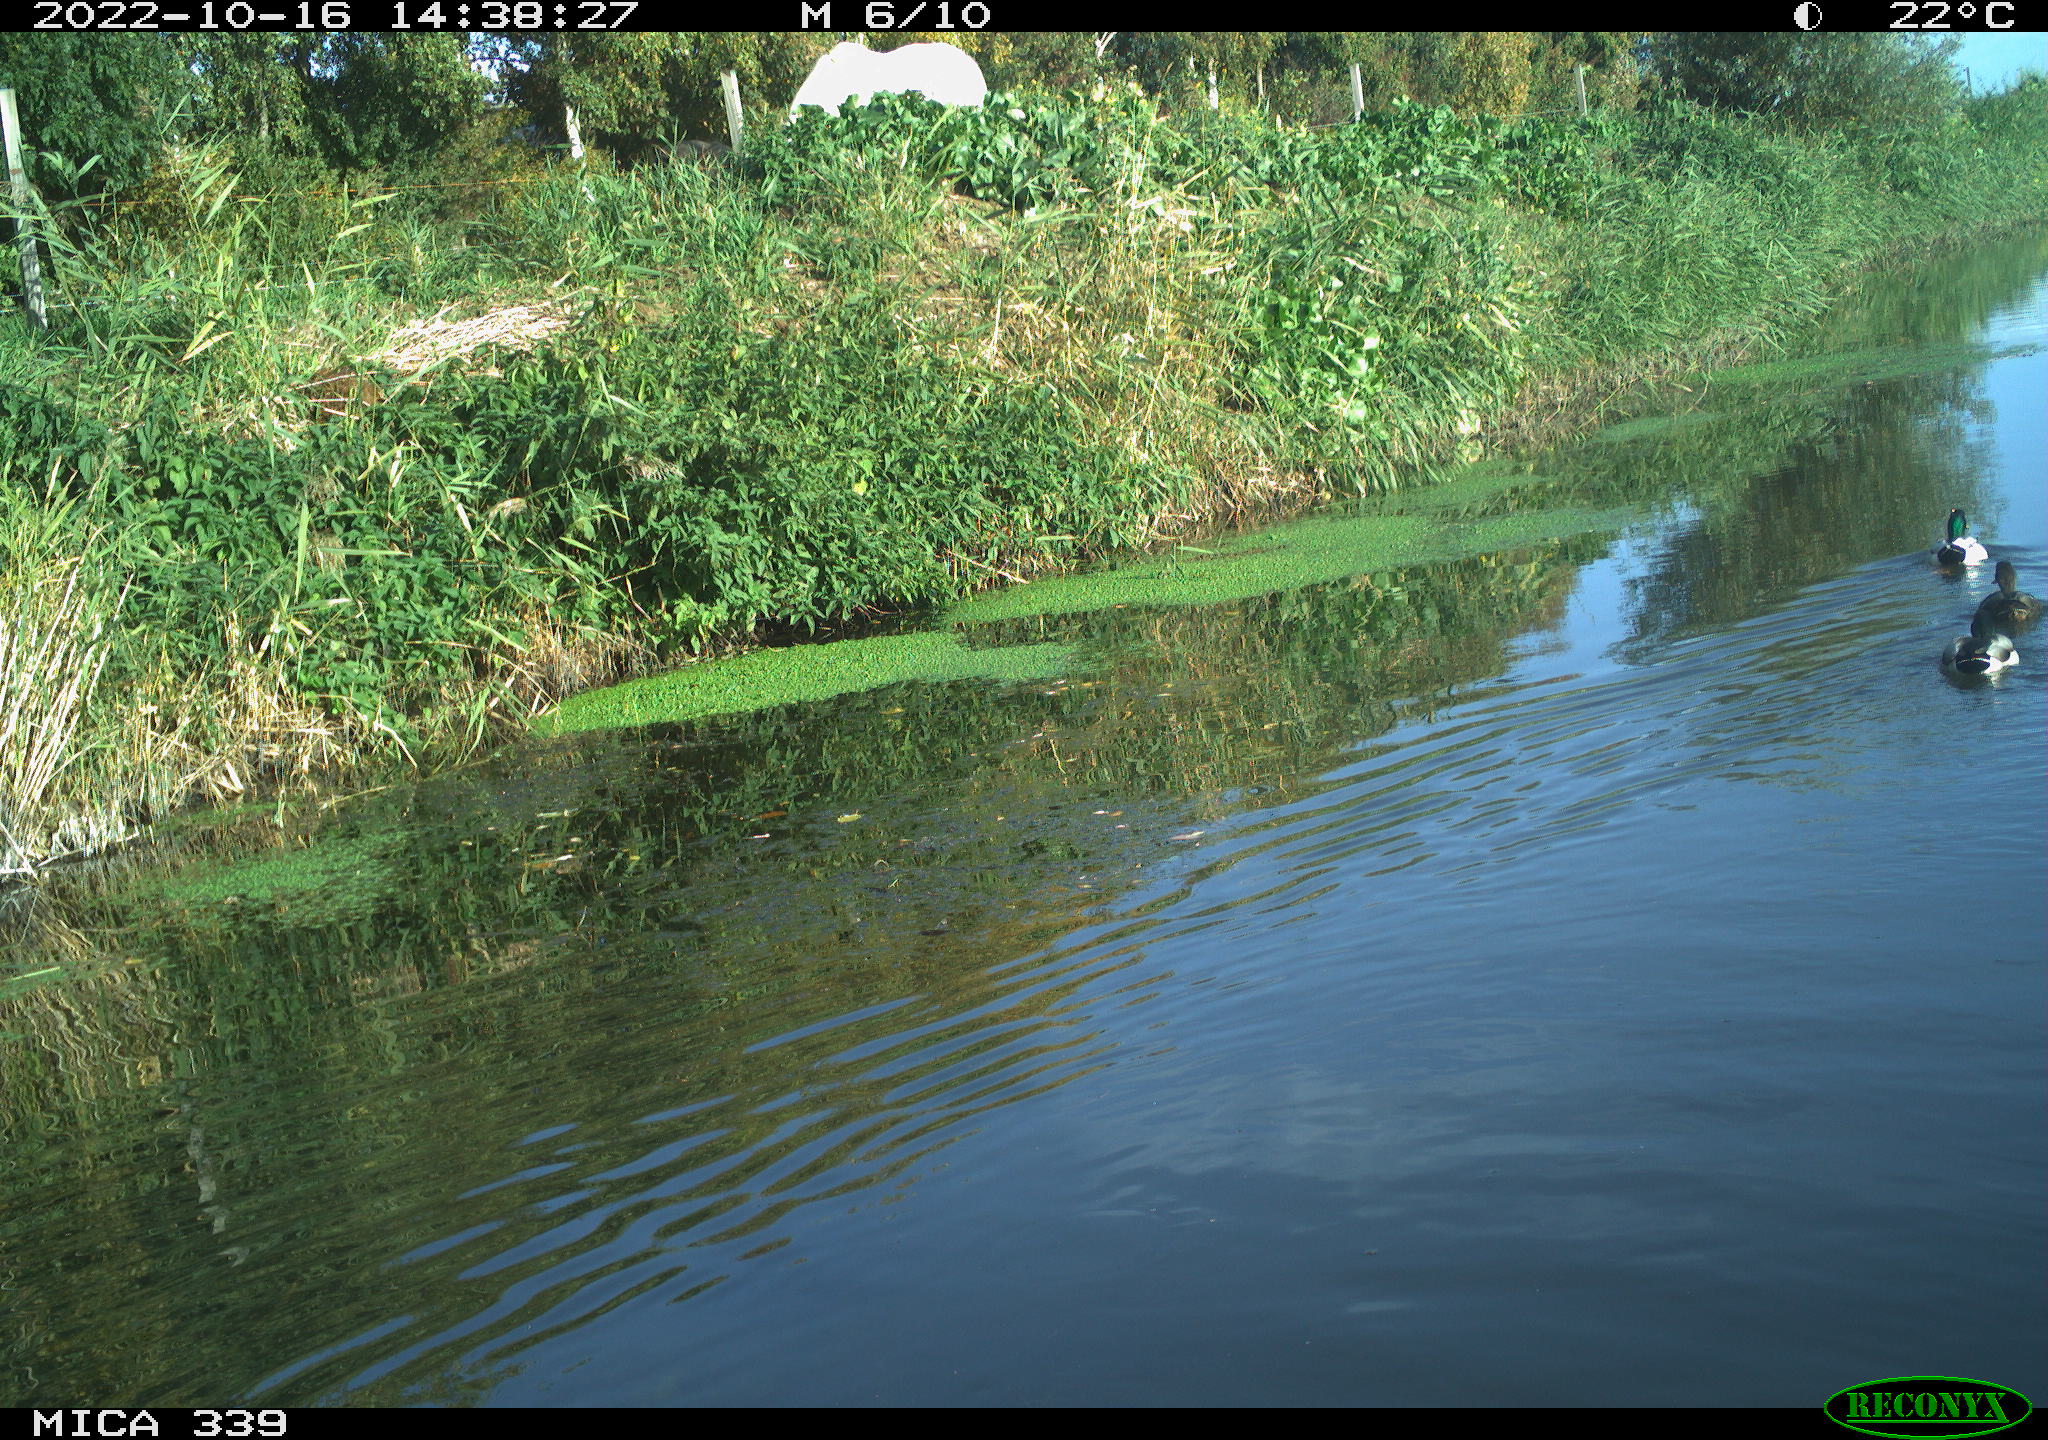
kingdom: Animalia
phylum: Chordata
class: Aves
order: Anseriformes
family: Anatidae
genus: Anas
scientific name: Anas platyrhynchos
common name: Mallard
